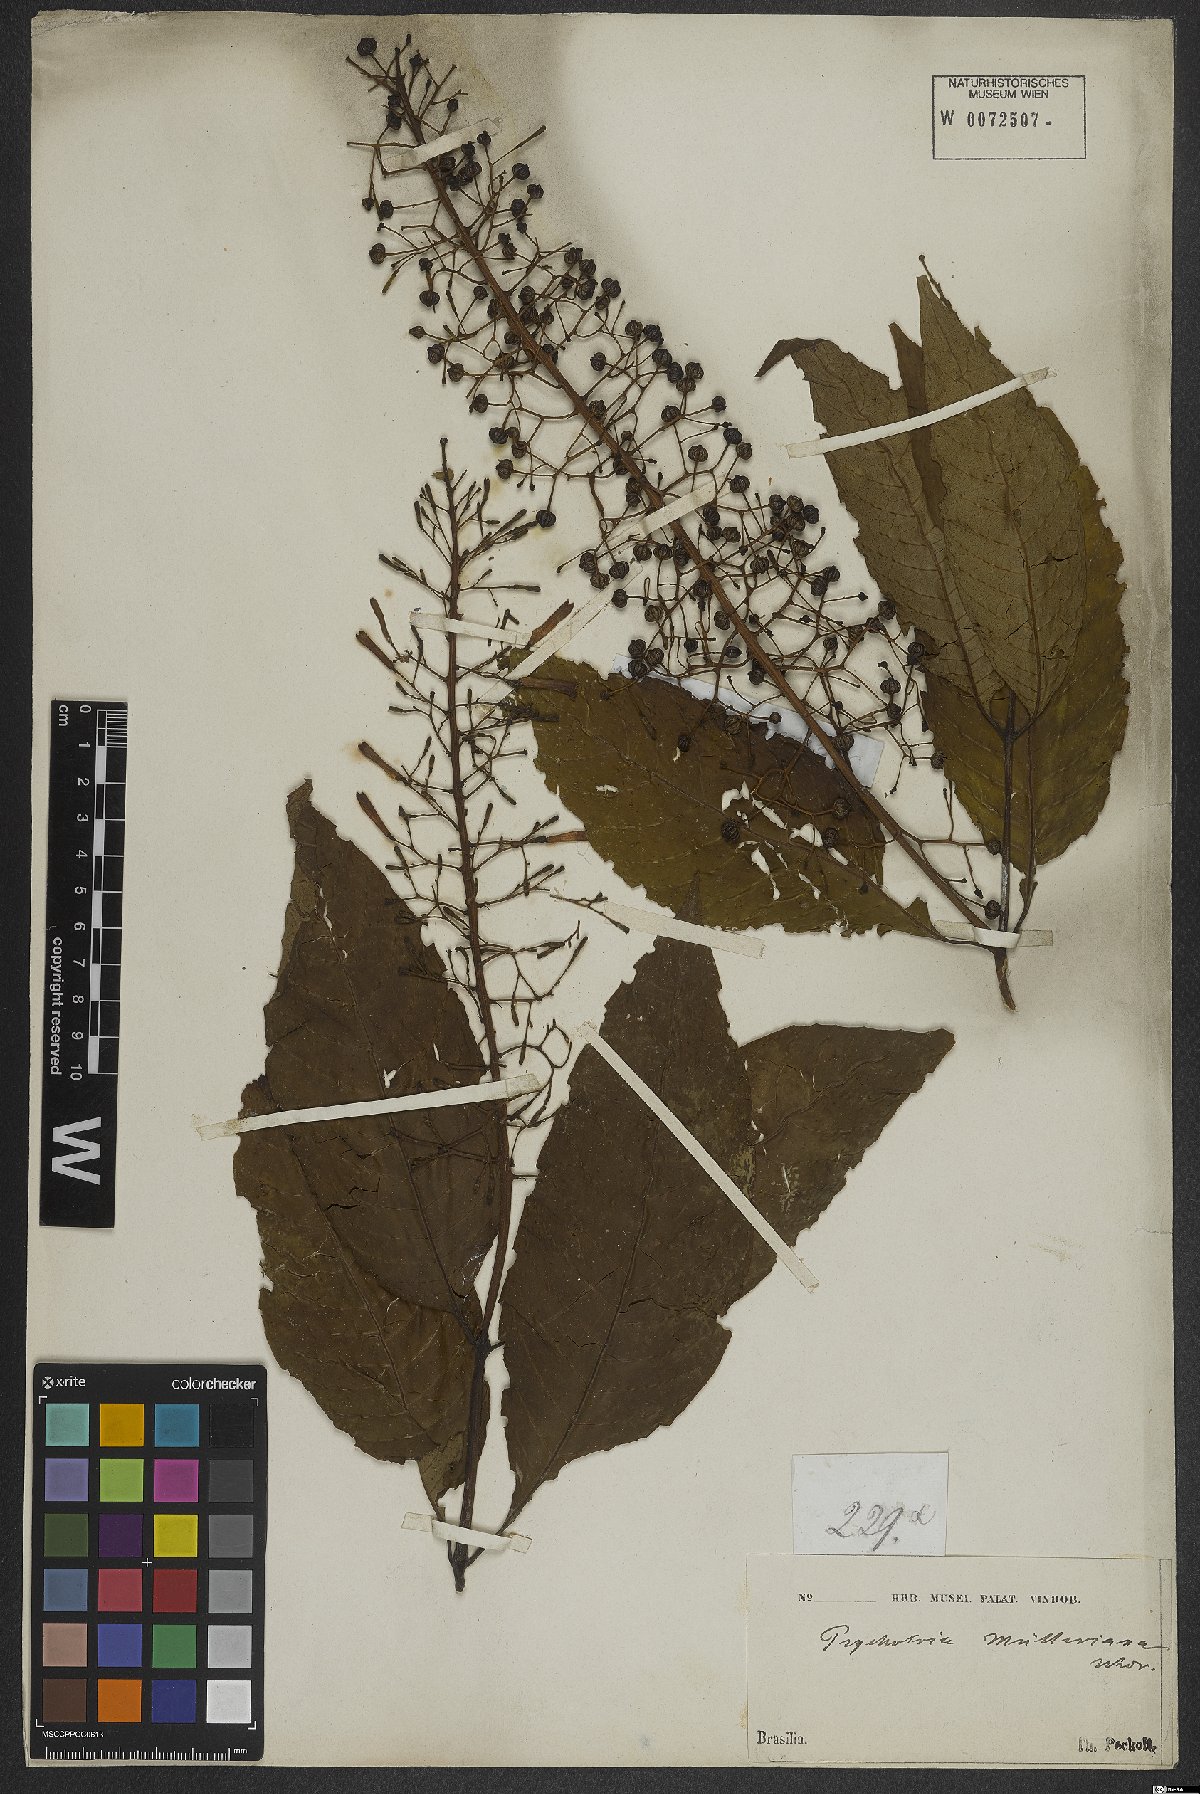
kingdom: Plantae
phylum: Tracheophyta
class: Magnoliopsida
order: Gentianales
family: Rubiaceae
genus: Psychotria
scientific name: Psychotria muelleriana
